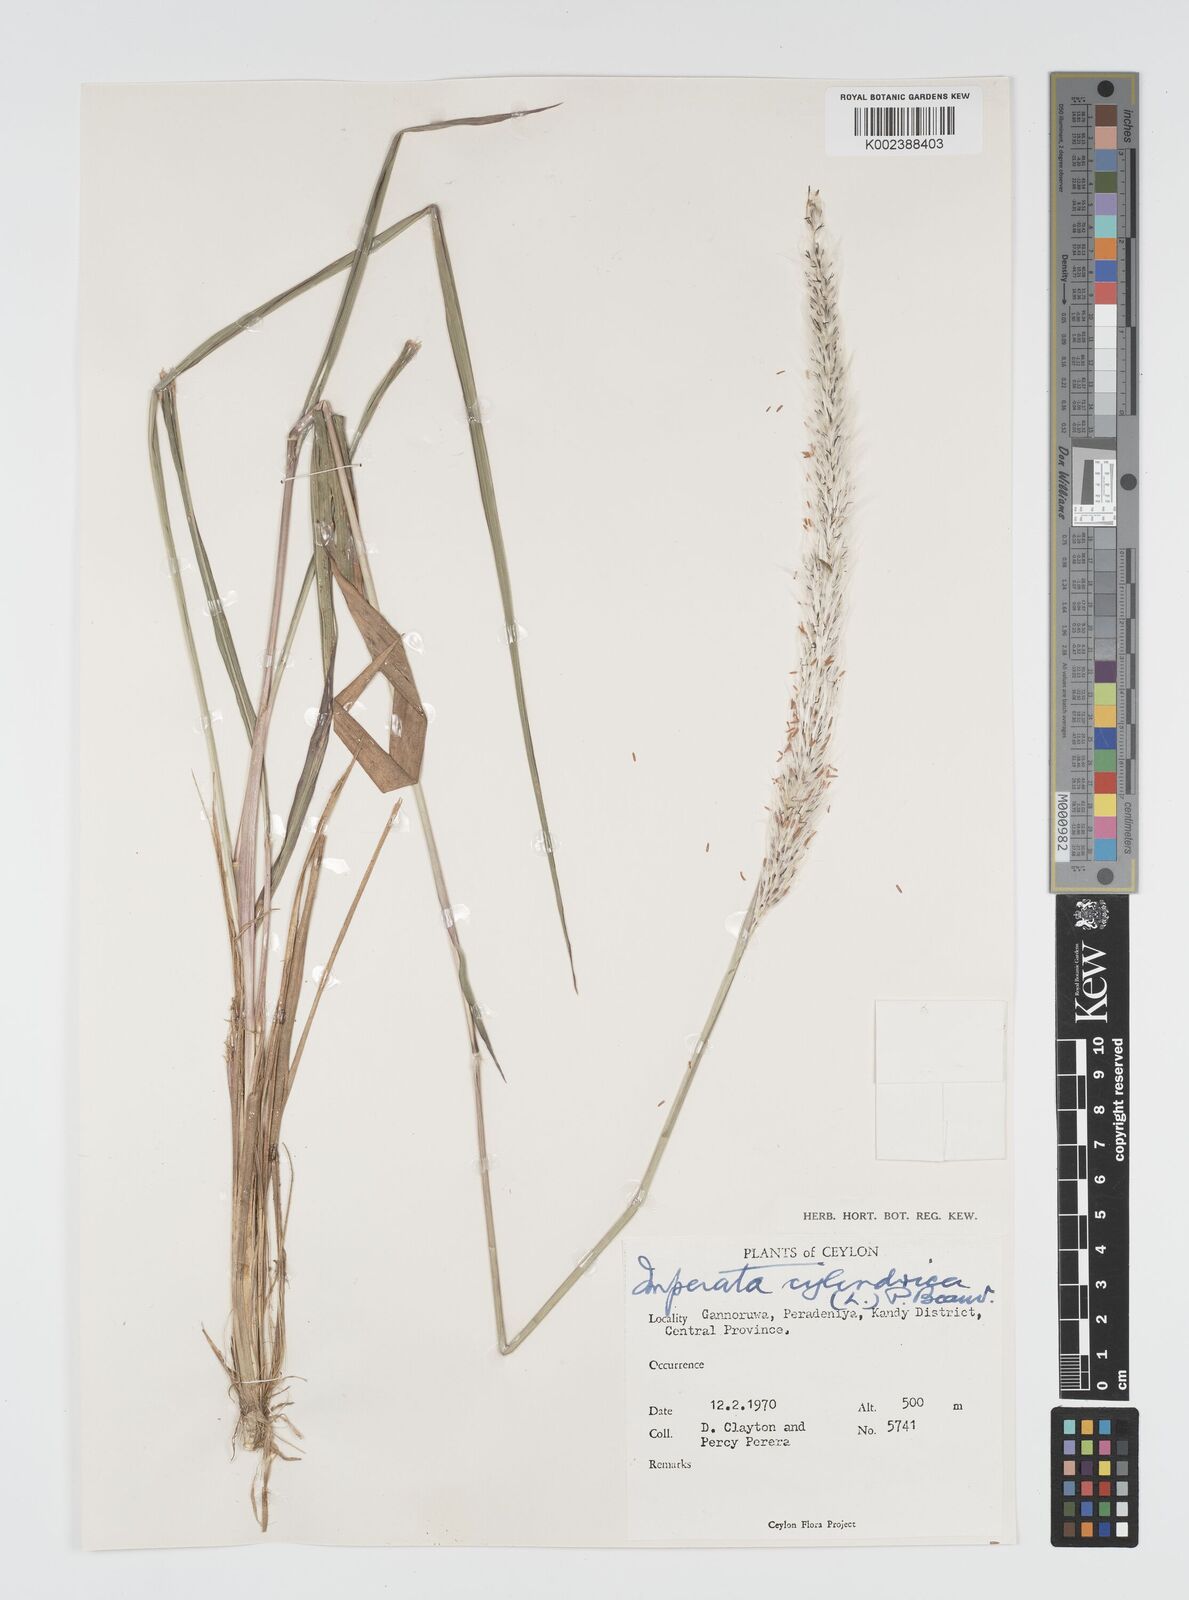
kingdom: Plantae
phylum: Tracheophyta
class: Liliopsida
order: Poales
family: Poaceae
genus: Imperata
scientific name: Imperata cylindrica
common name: Cogongrass
